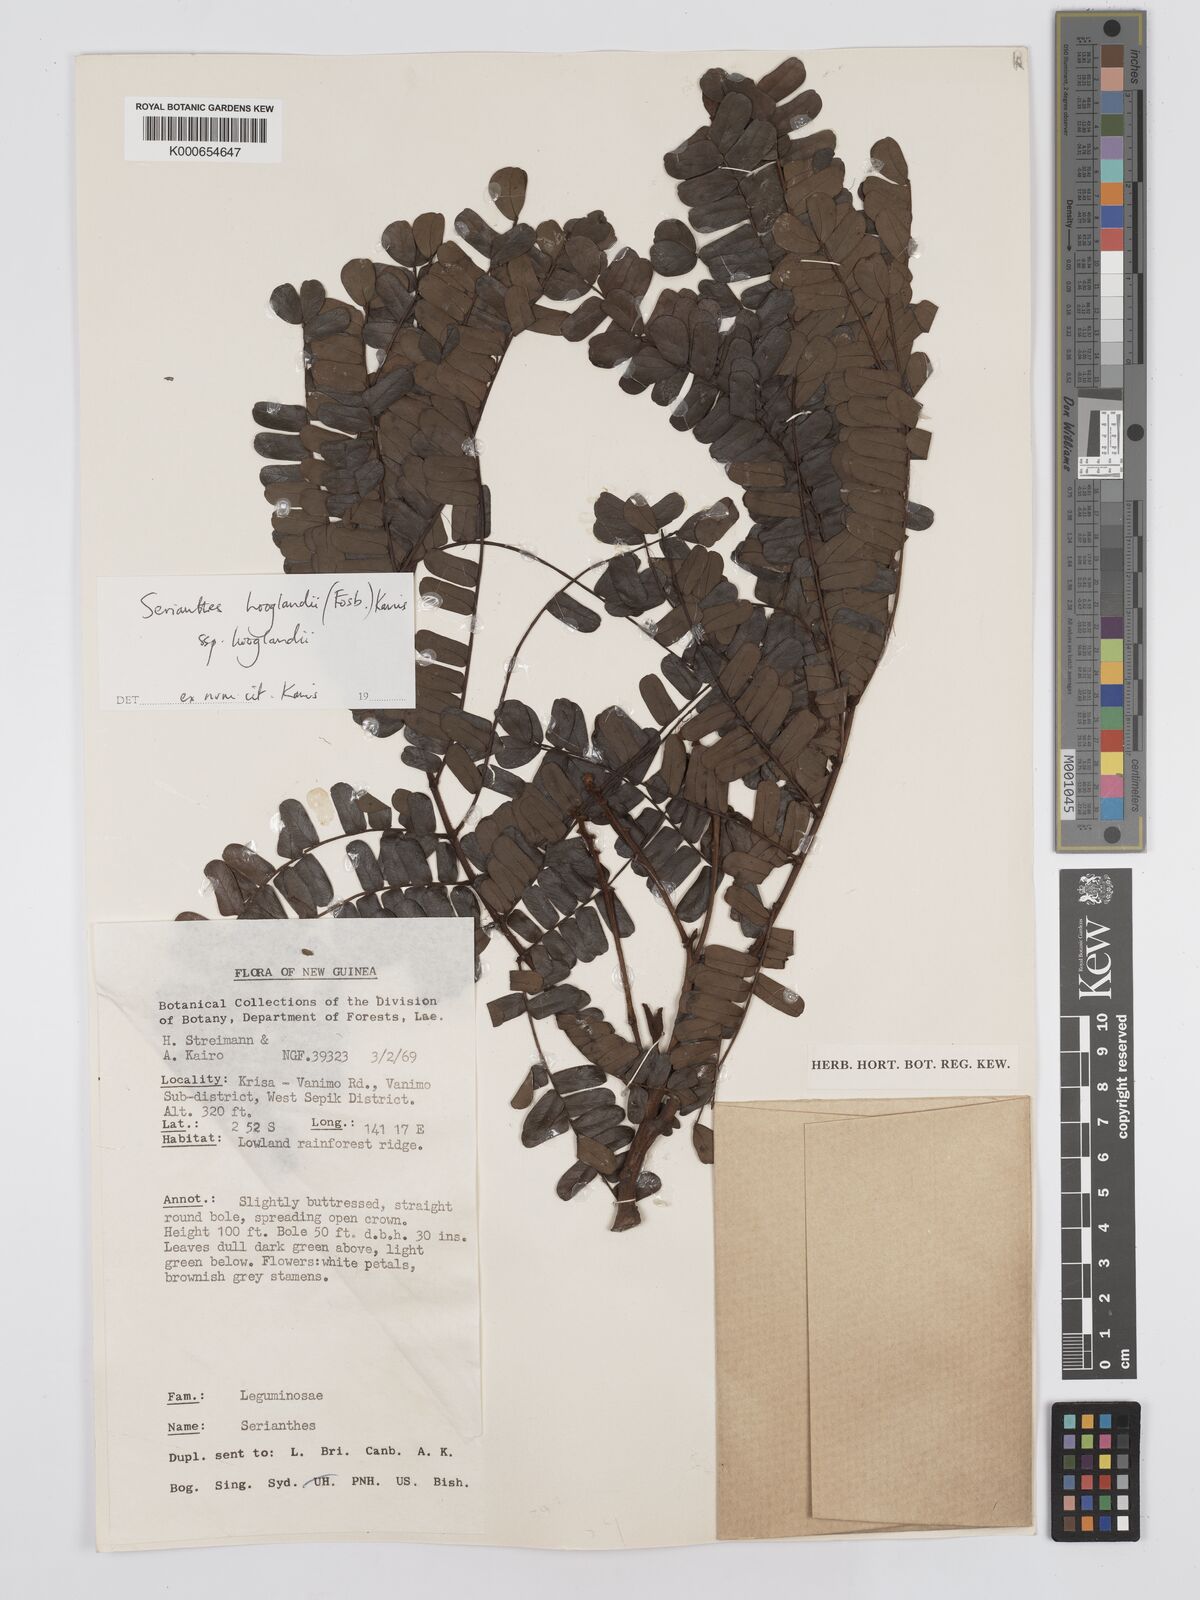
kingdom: Plantae
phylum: Tracheophyta
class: Magnoliopsida
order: Fabales
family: Fabaceae
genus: Serianthes
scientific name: Serianthes hooglandii
